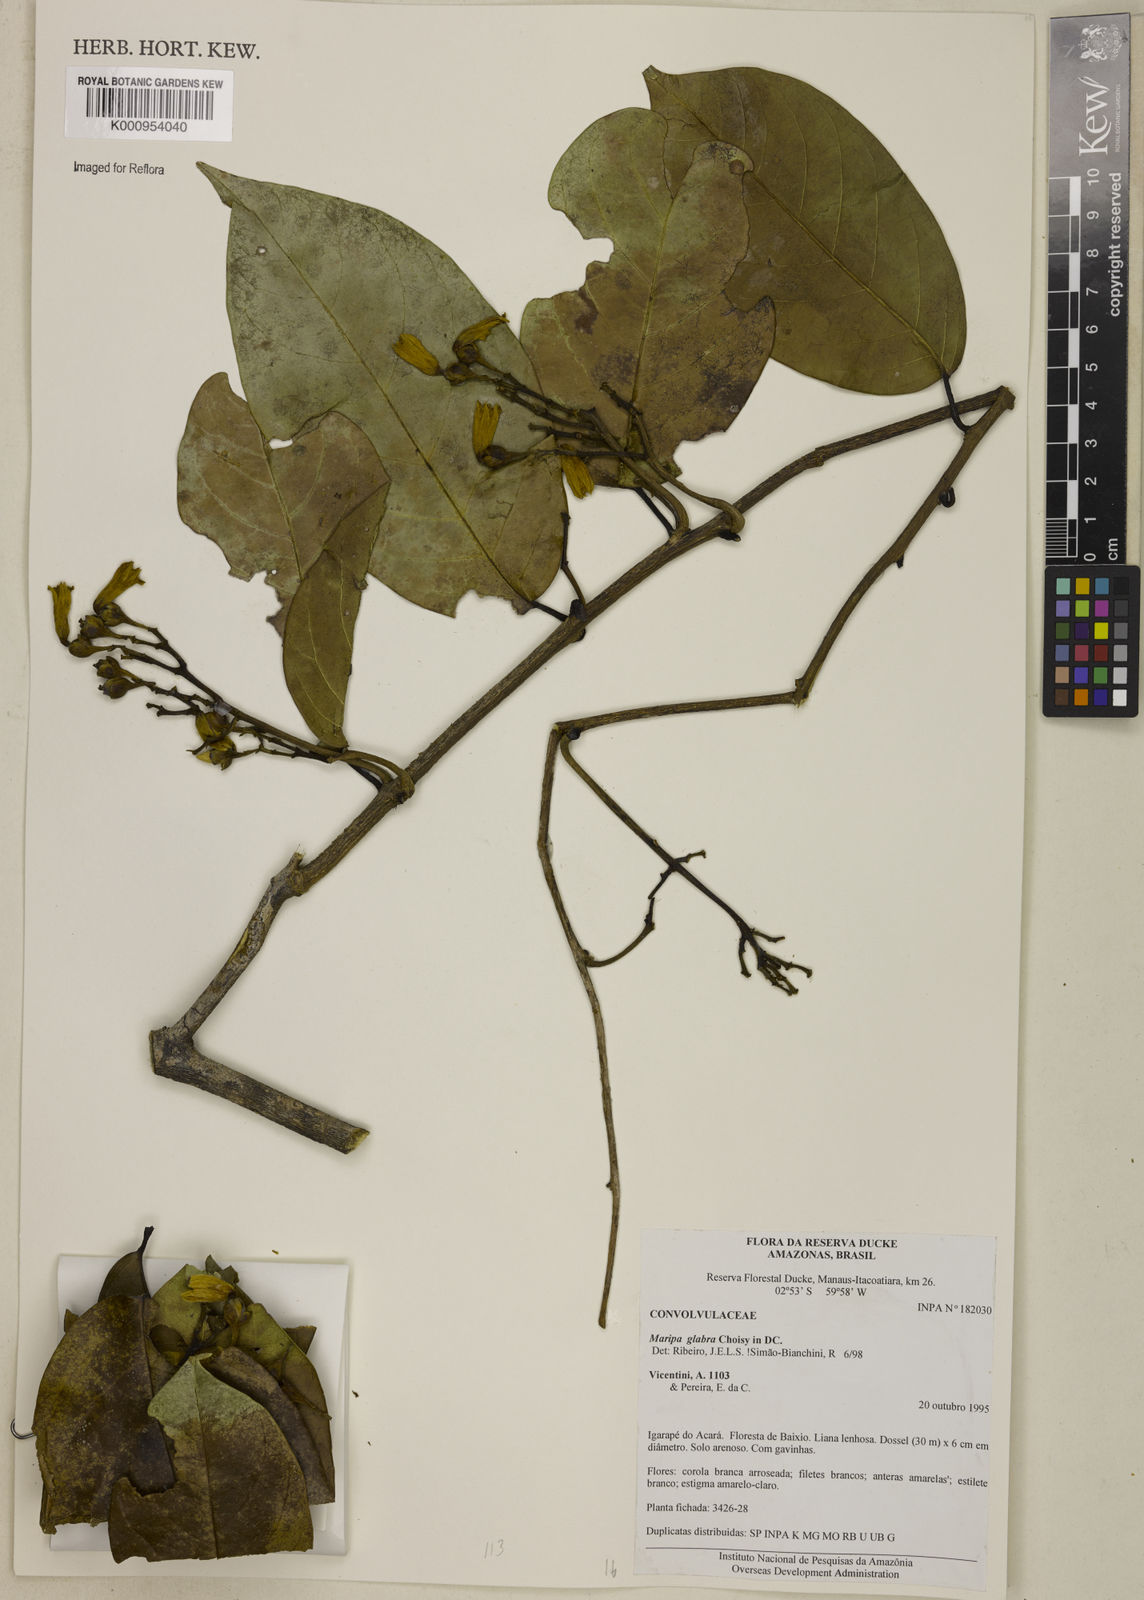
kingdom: Plantae
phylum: Tracheophyta
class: Magnoliopsida
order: Solanales
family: Convolvulaceae
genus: Maripa
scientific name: Maripa glabra
